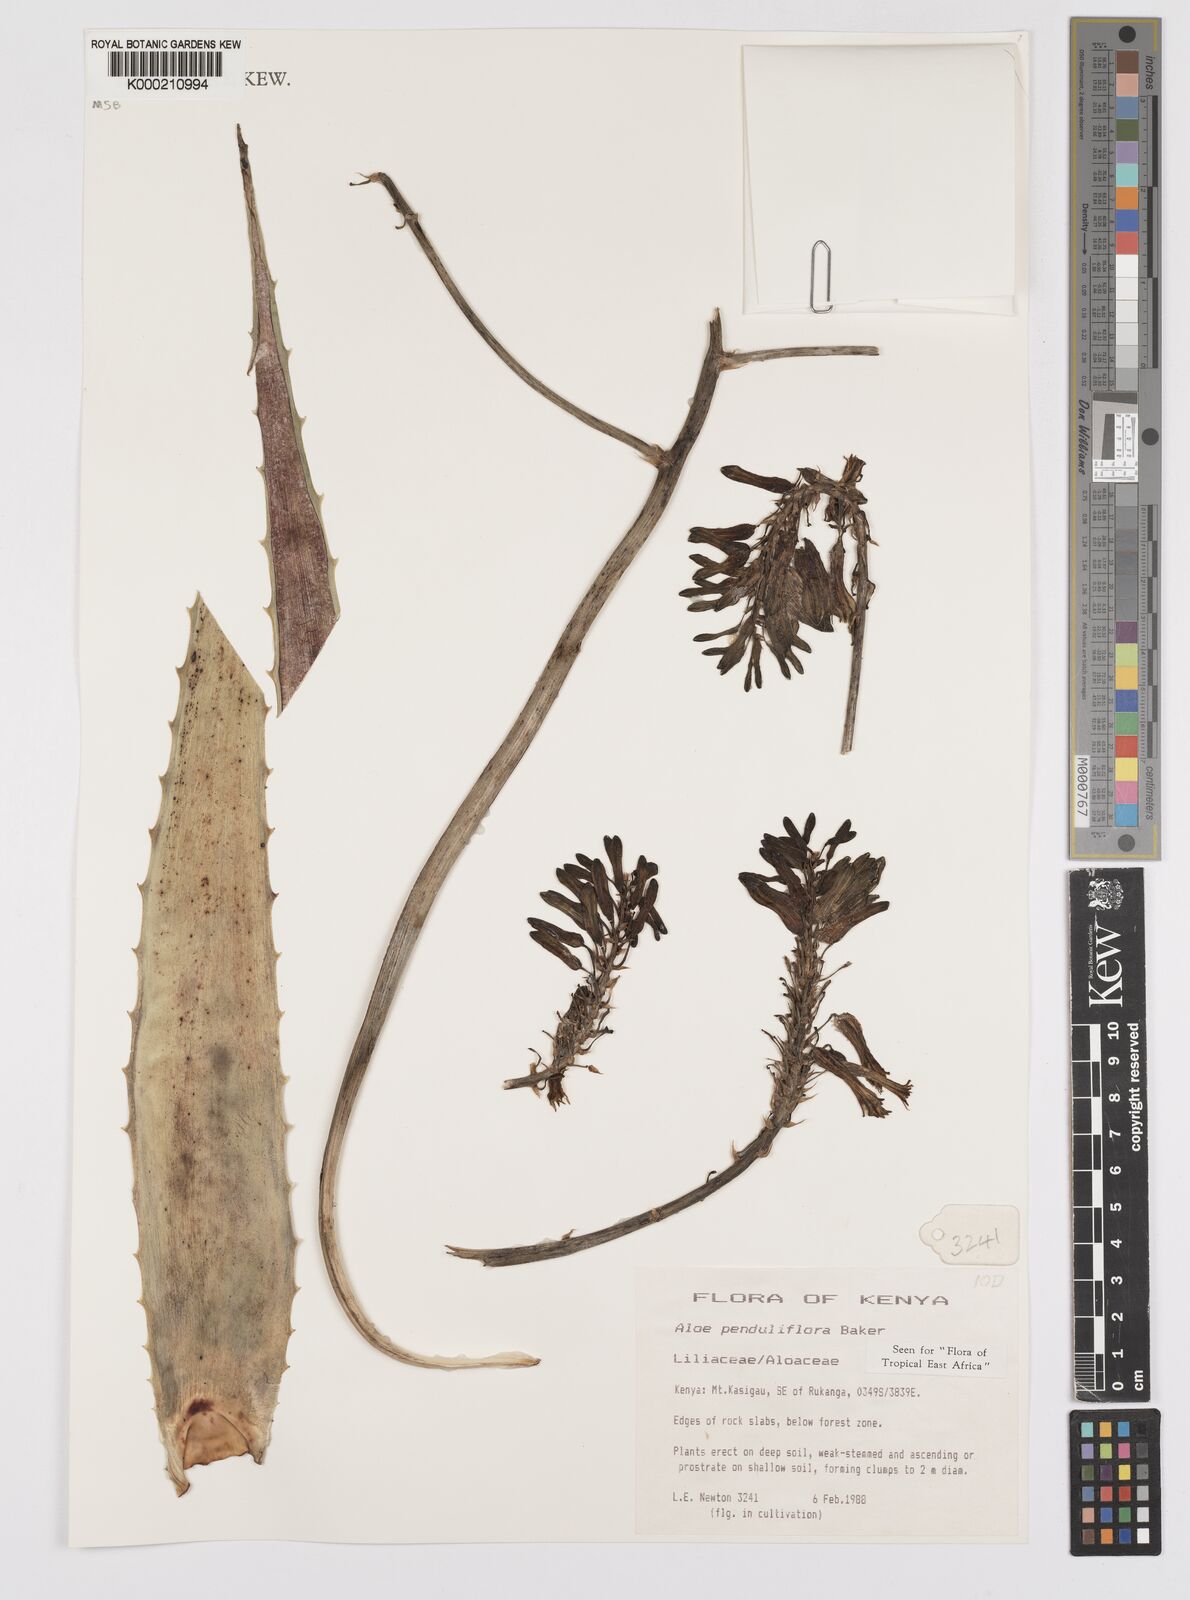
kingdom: Plantae
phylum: Tracheophyta
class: Liliopsida
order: Asparagales
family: Asphodelaceae
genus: Aloe
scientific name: Aloe penduliflora
